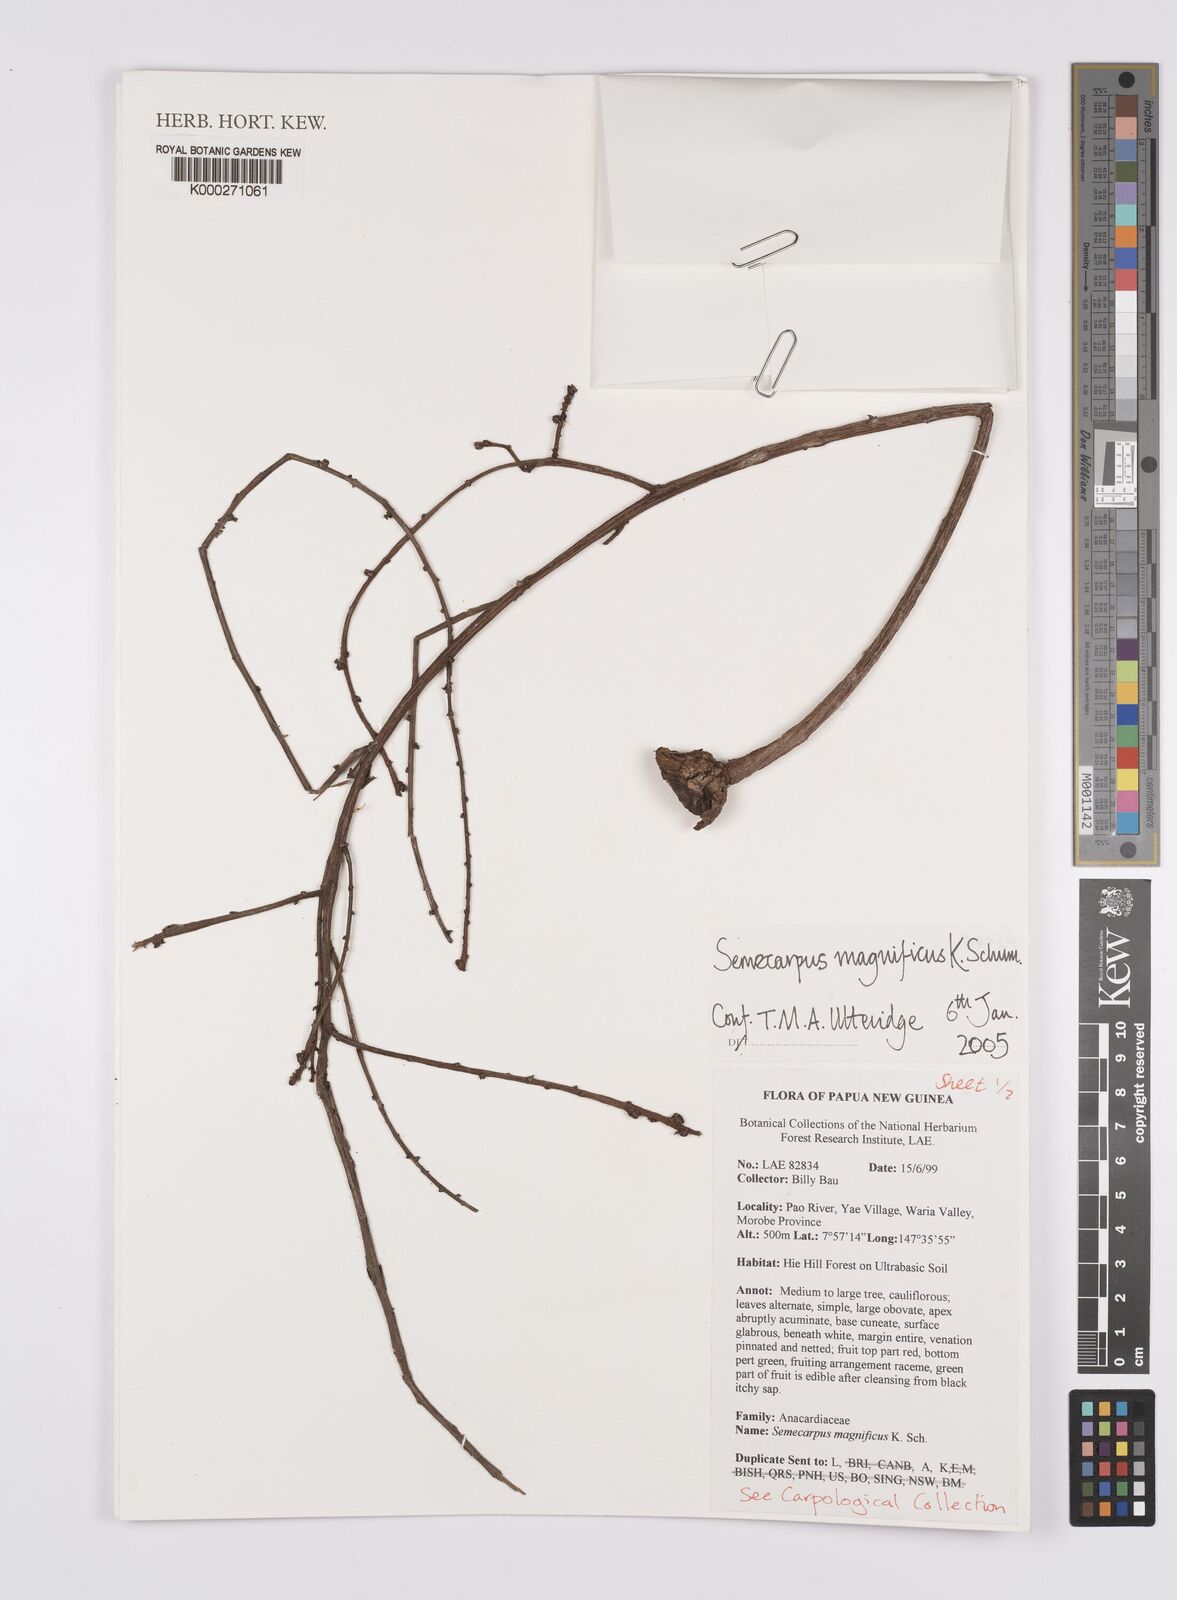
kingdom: Plantae
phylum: Tracheophyta
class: Magnoliopsida
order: Sapindales
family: Anacardiaceae
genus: Semecarpus
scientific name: Semecarpus magnificus
